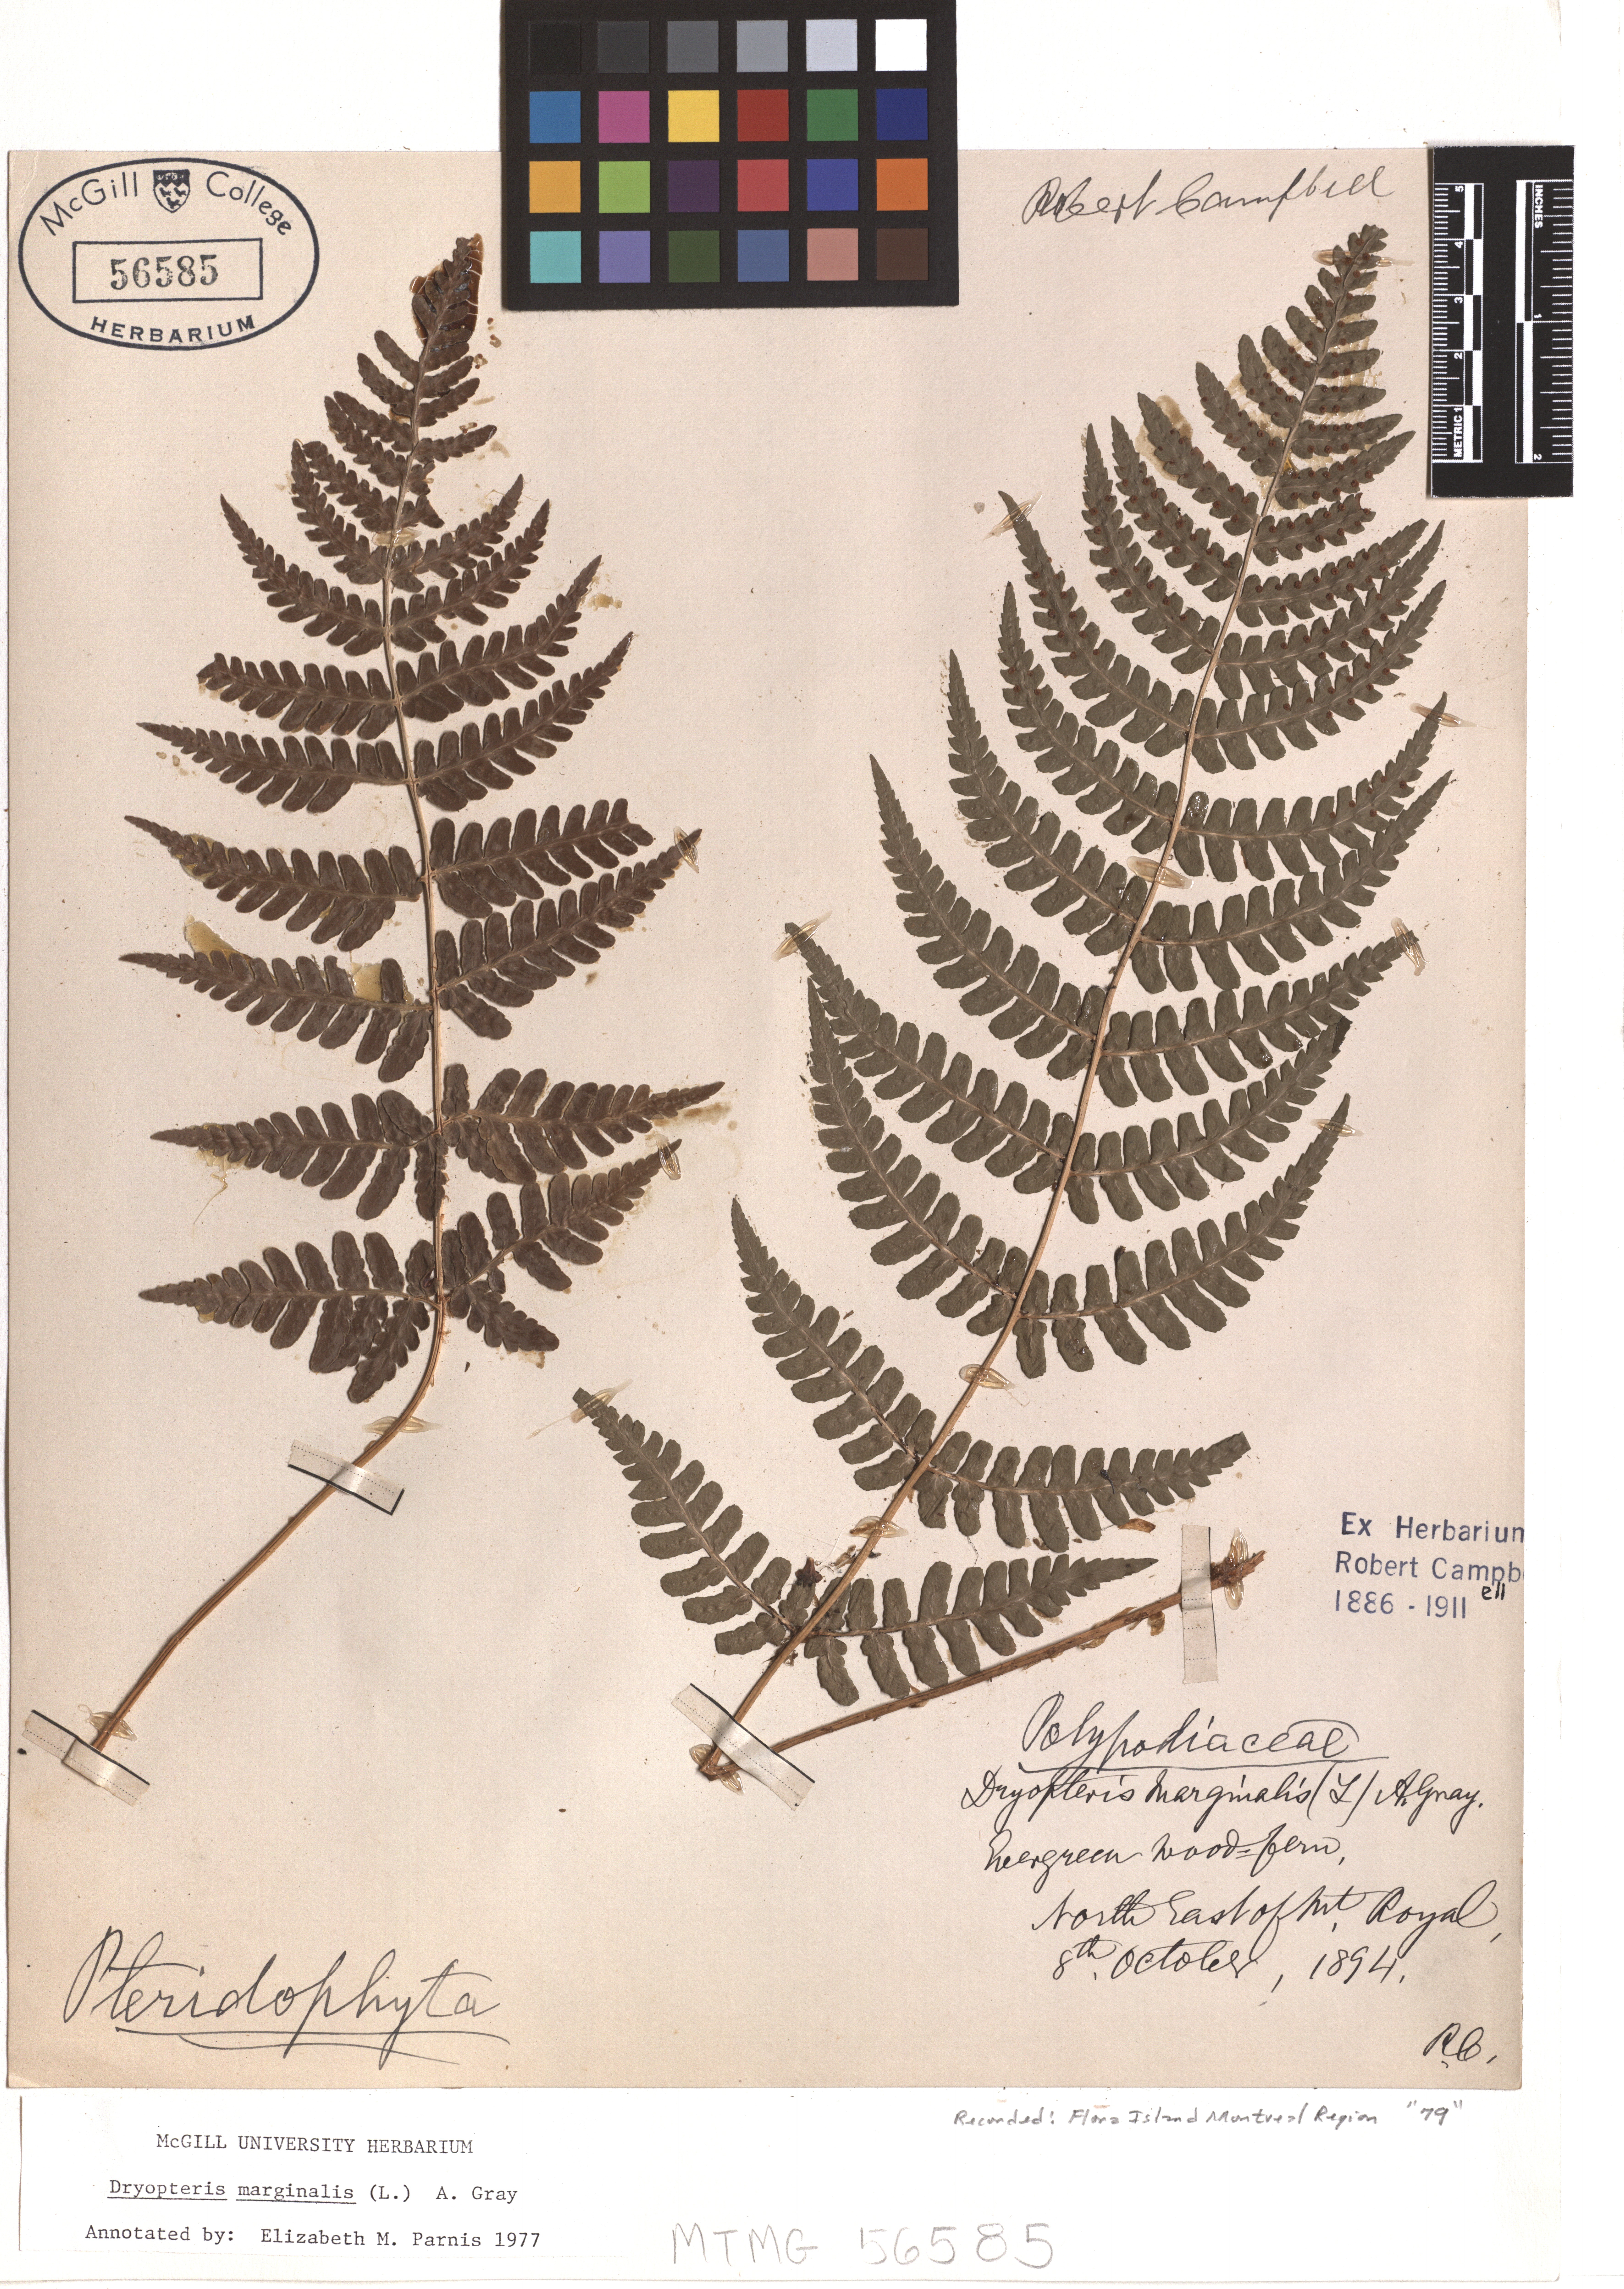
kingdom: Plantae
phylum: Tracheophyta
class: Polypodiopsida
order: Polypodiales
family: Dryopteridaceae
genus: Dryopteris
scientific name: Dryopteris marginalis
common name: Marginal wood fern
